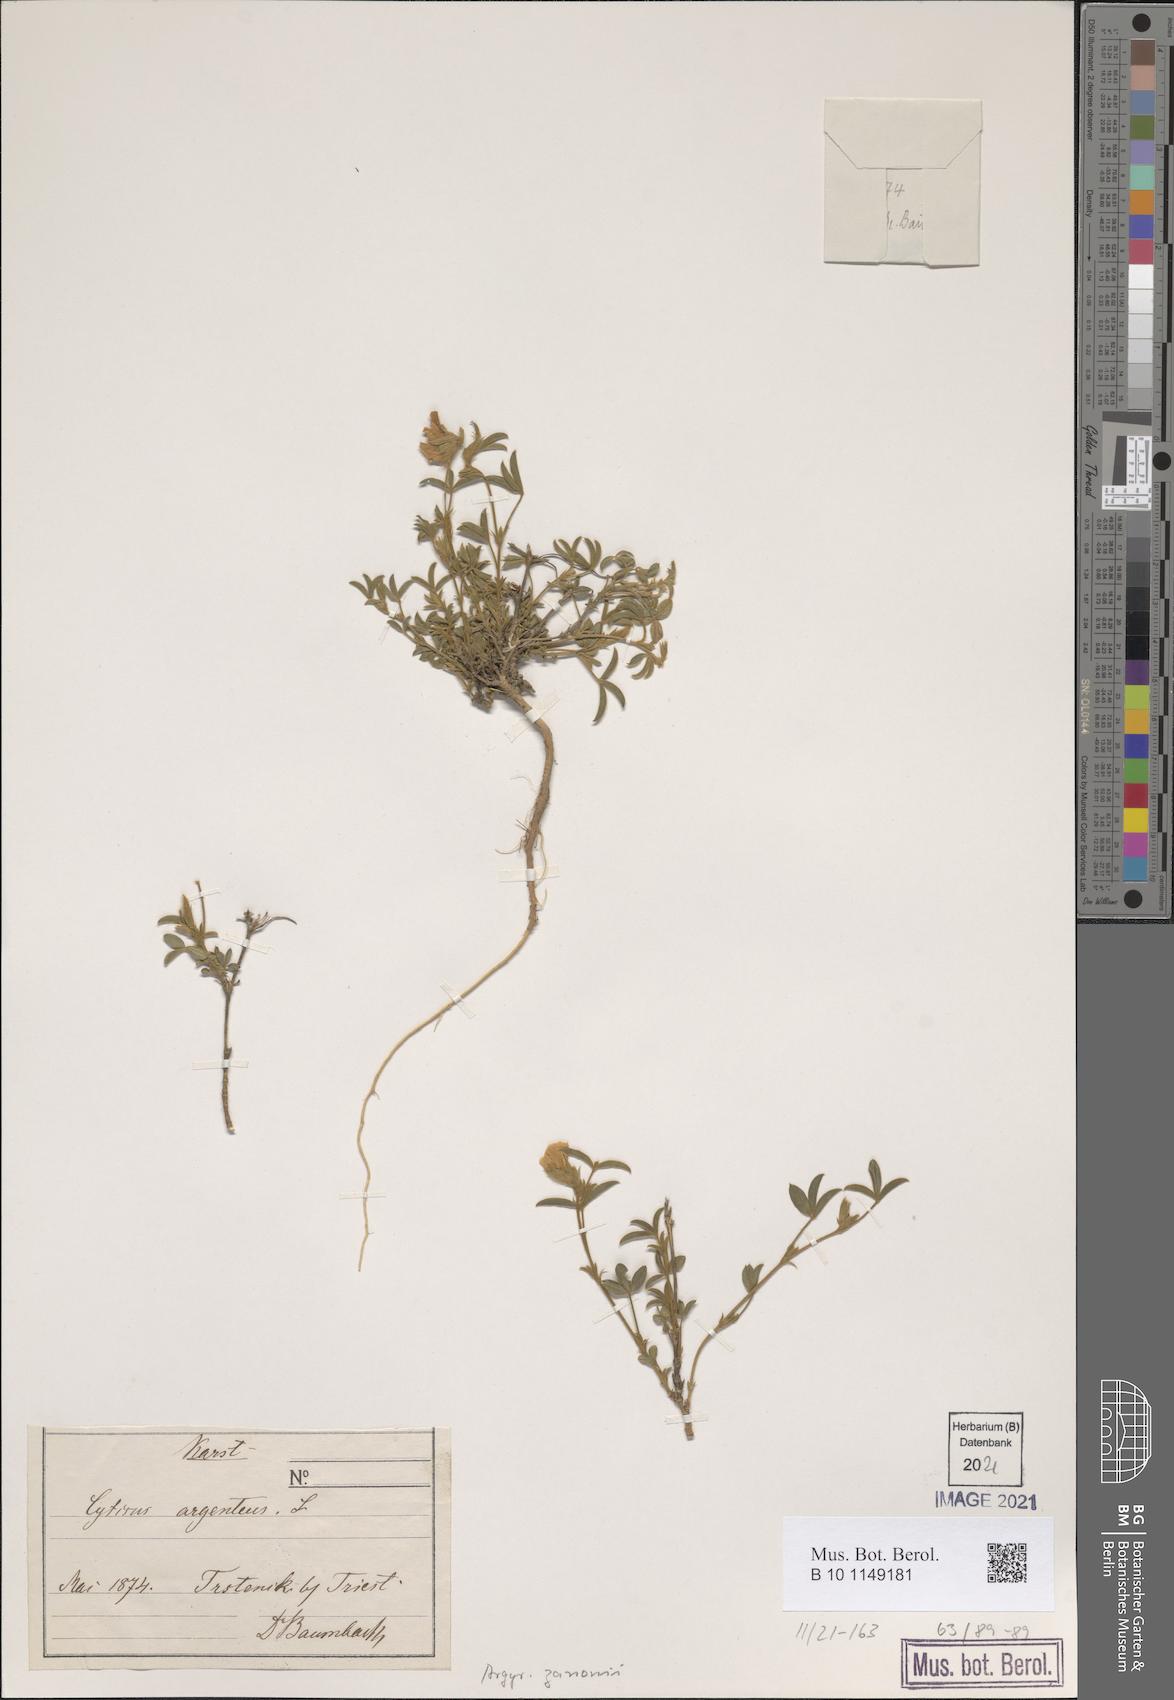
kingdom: Plantae
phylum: Tracheophyta
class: Magnoliopsida
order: Fabales
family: Fabaceae
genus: Argyrolobium
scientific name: Argyrolobium zanonii
